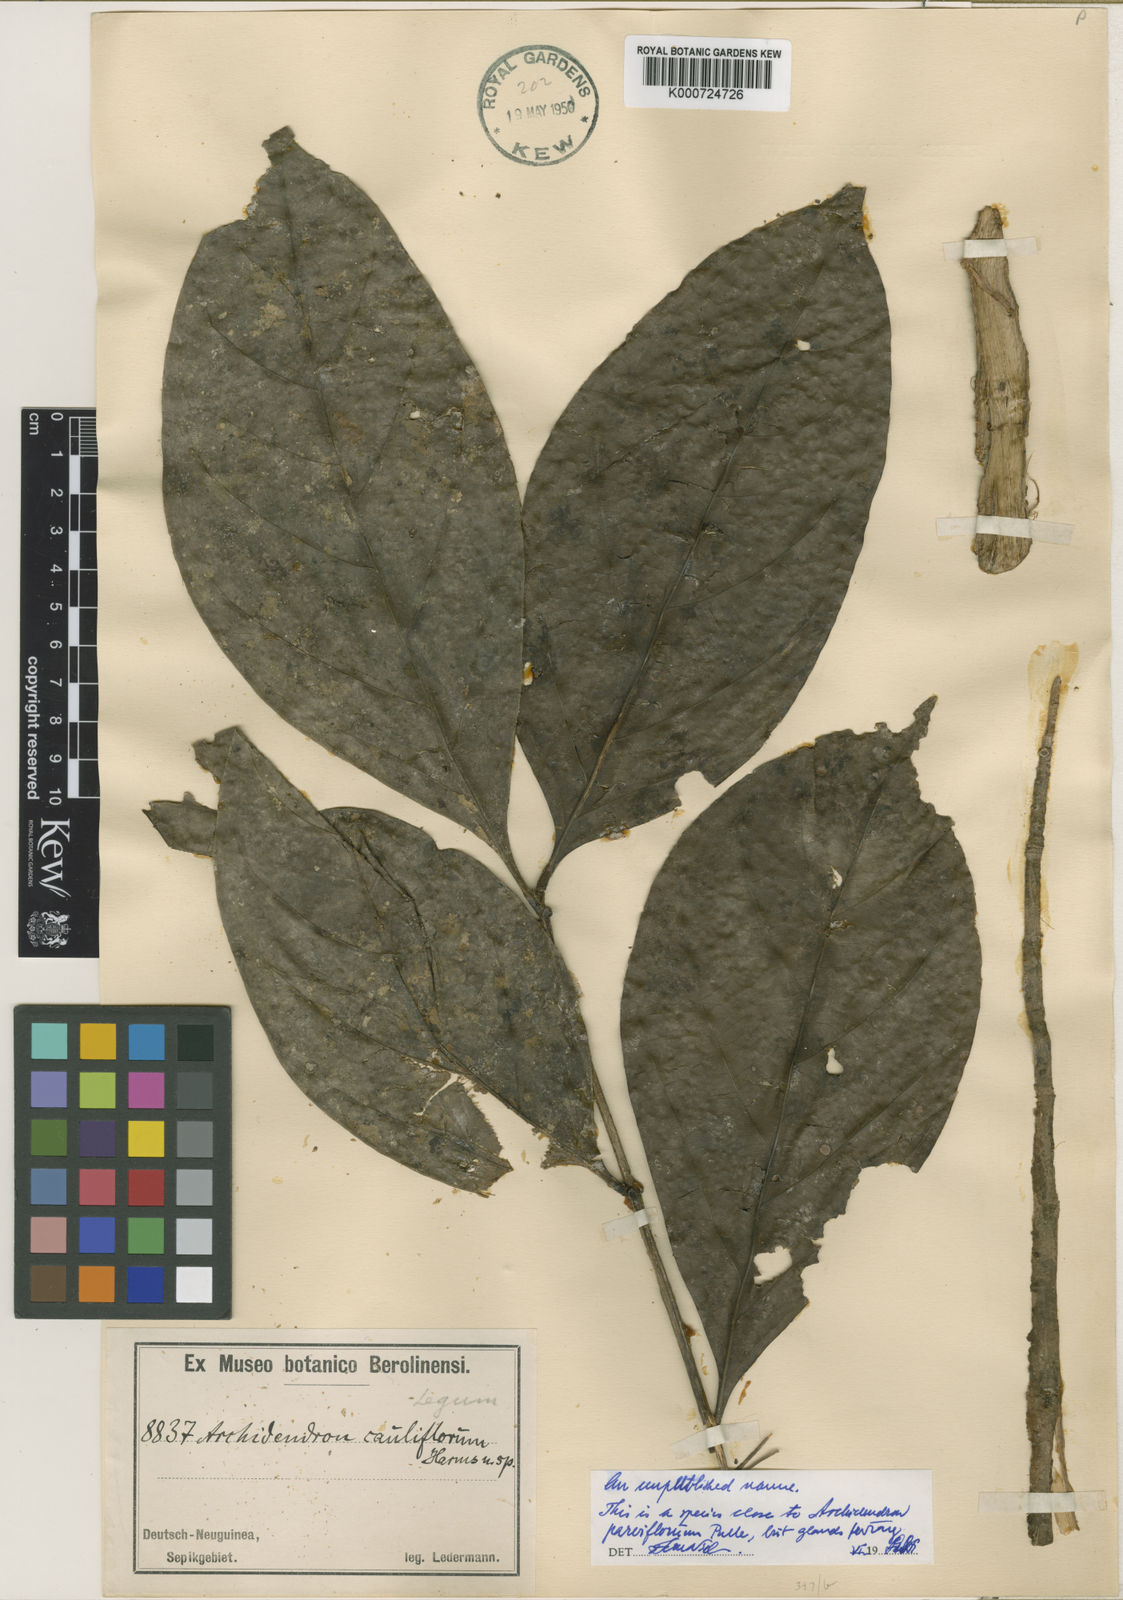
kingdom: Plantae
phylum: Tracheophyta
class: Magnoliopsida
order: Fabales
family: Fabaceae
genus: Archidendron
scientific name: Archidendron
